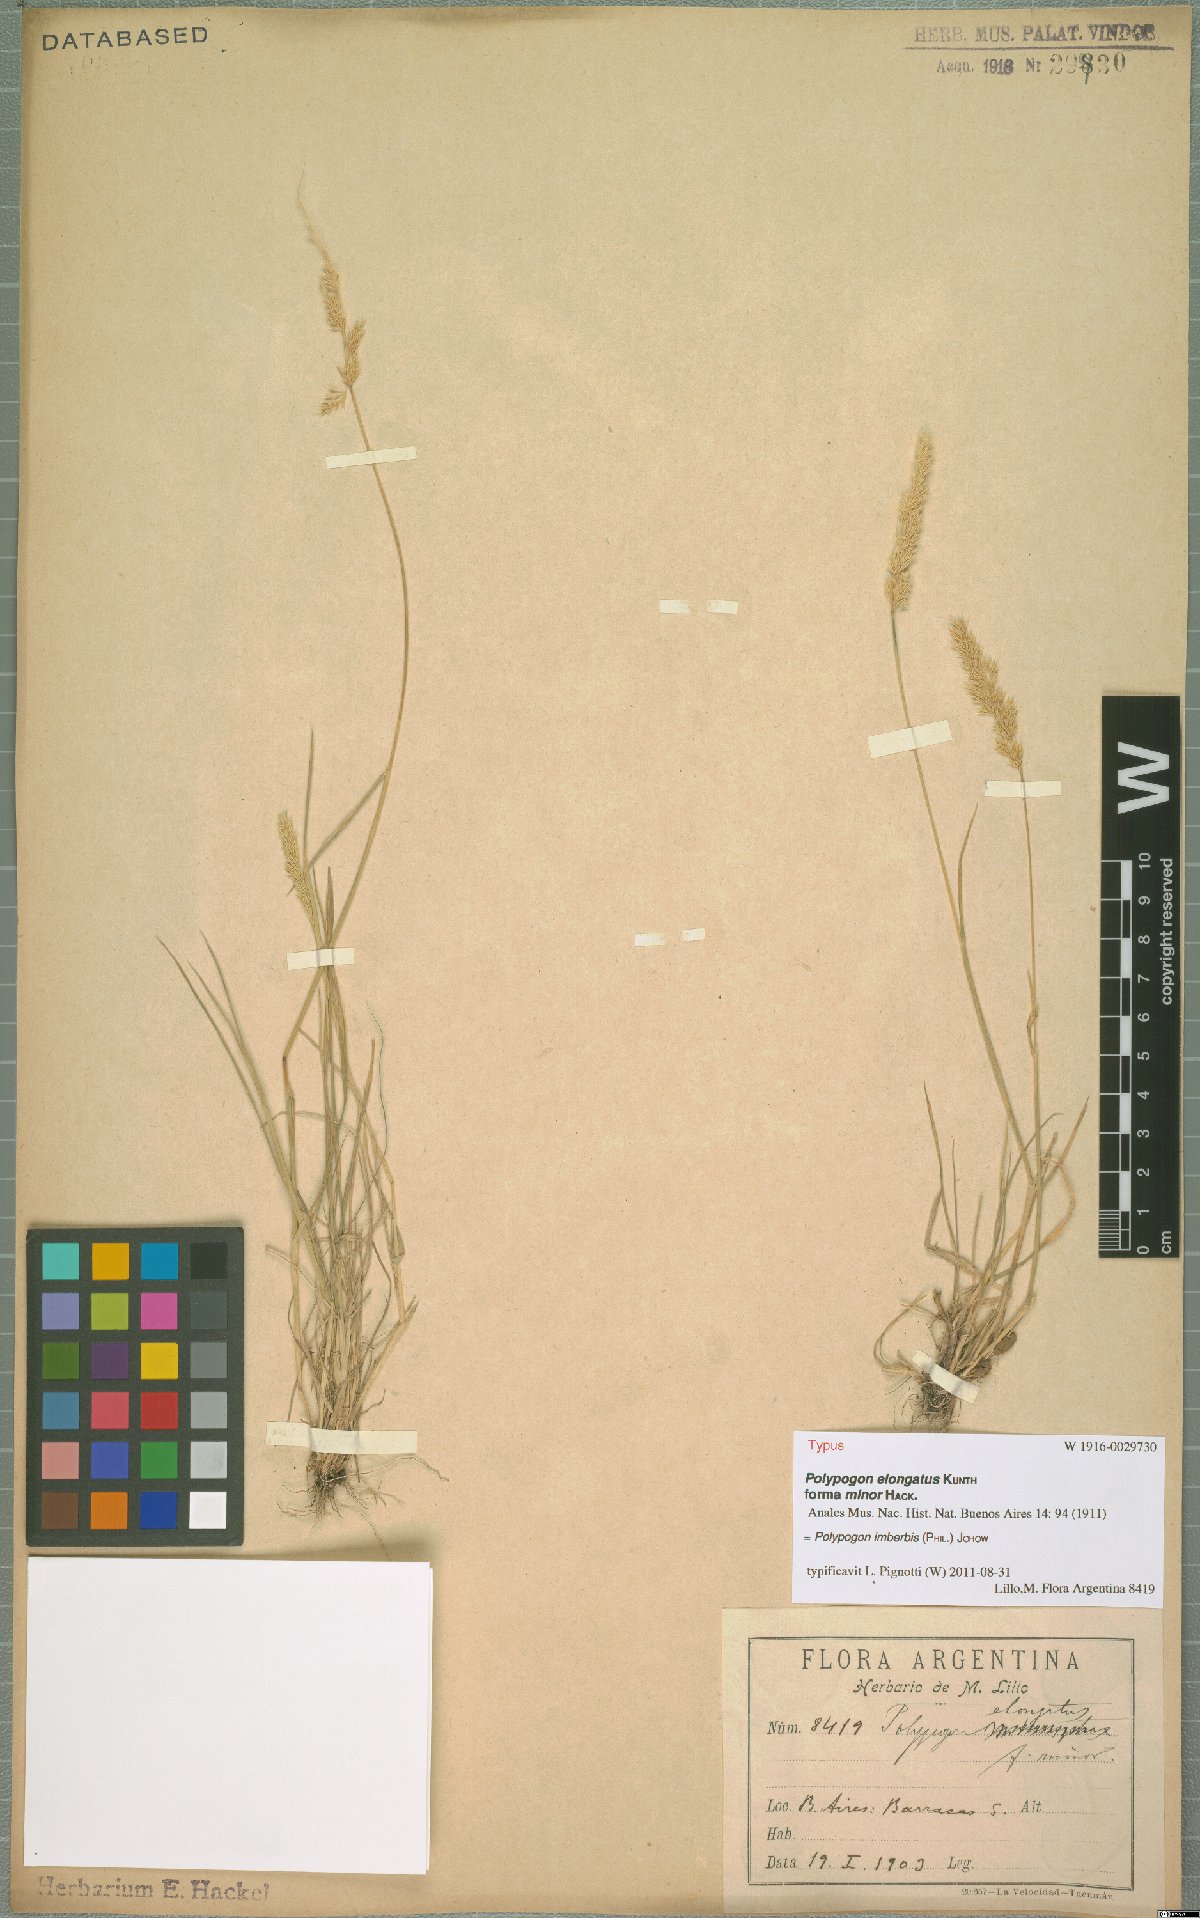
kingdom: Plantae
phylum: Tracheophyta
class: Liliopsida
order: Poales
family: Poaceae
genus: Polypogon
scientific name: Polypogon imberbis
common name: Beardless rabbitsfoot grass
